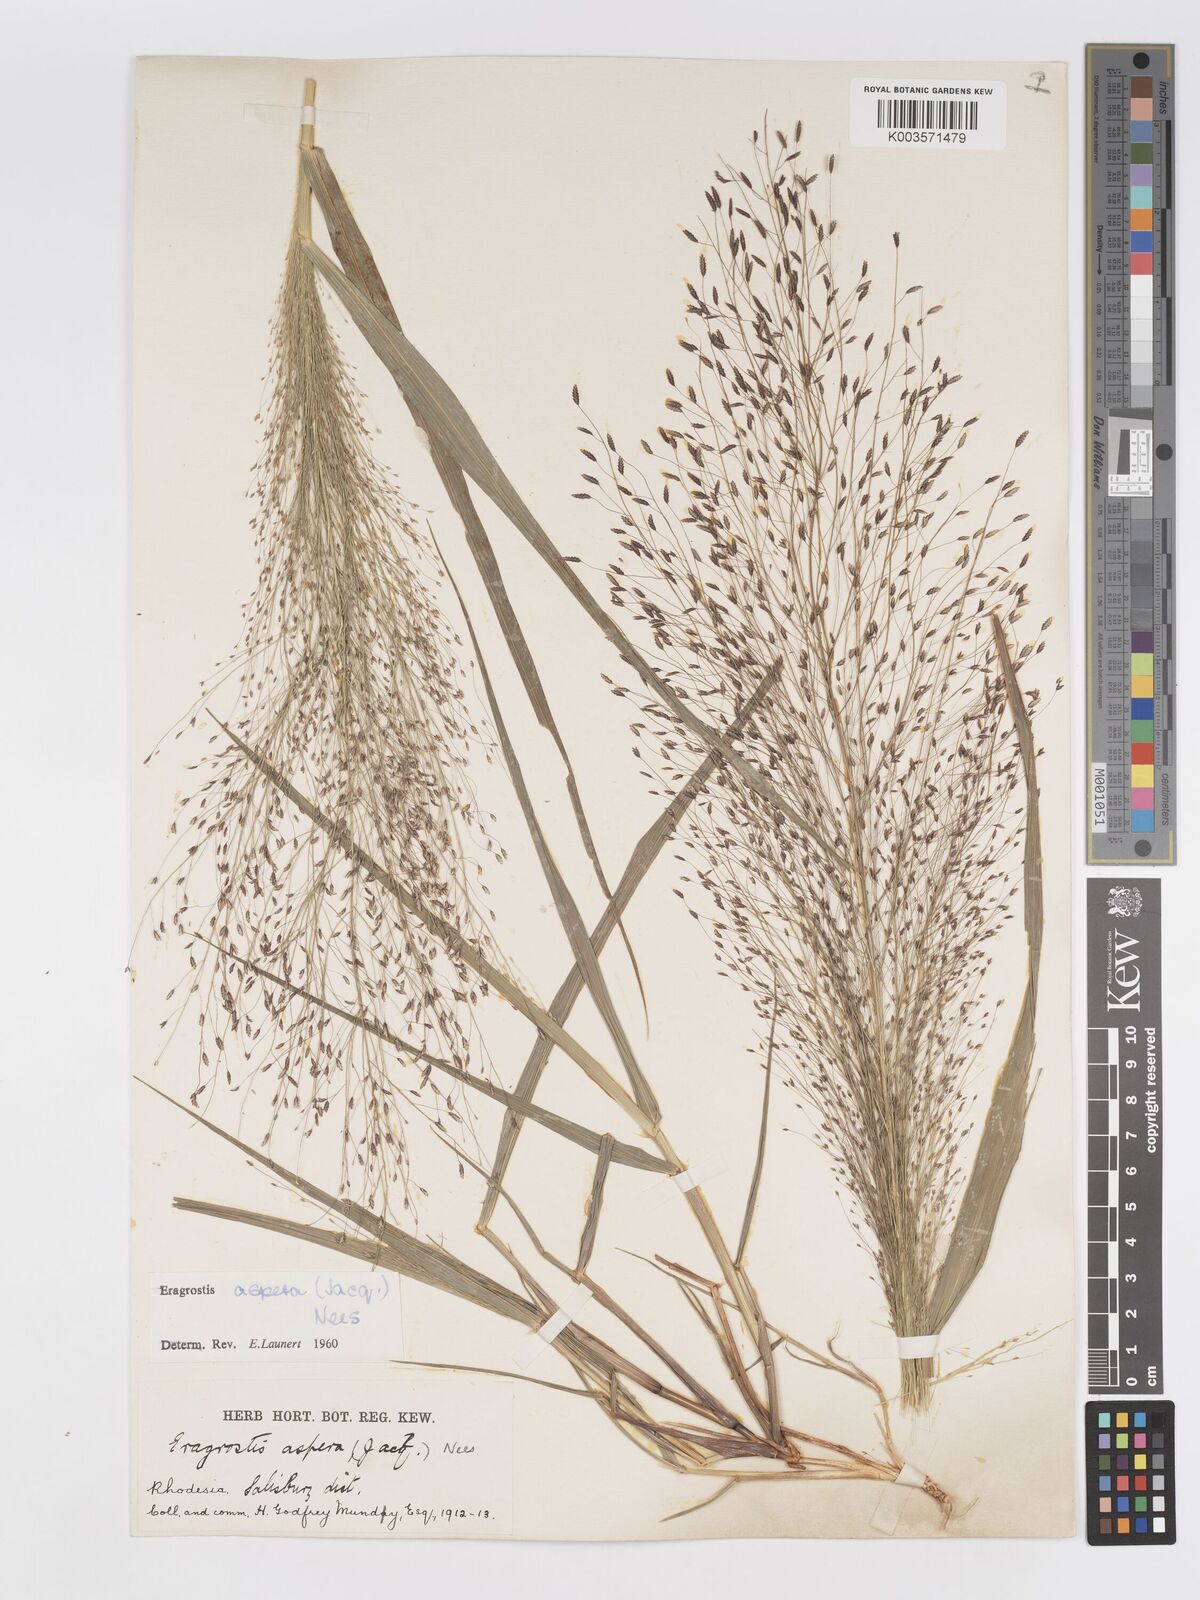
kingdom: Plantae
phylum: Tracheophyta
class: Liliopsida
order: Poales
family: Poaceae
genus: Eragrostis
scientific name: Eragrostis aspera
